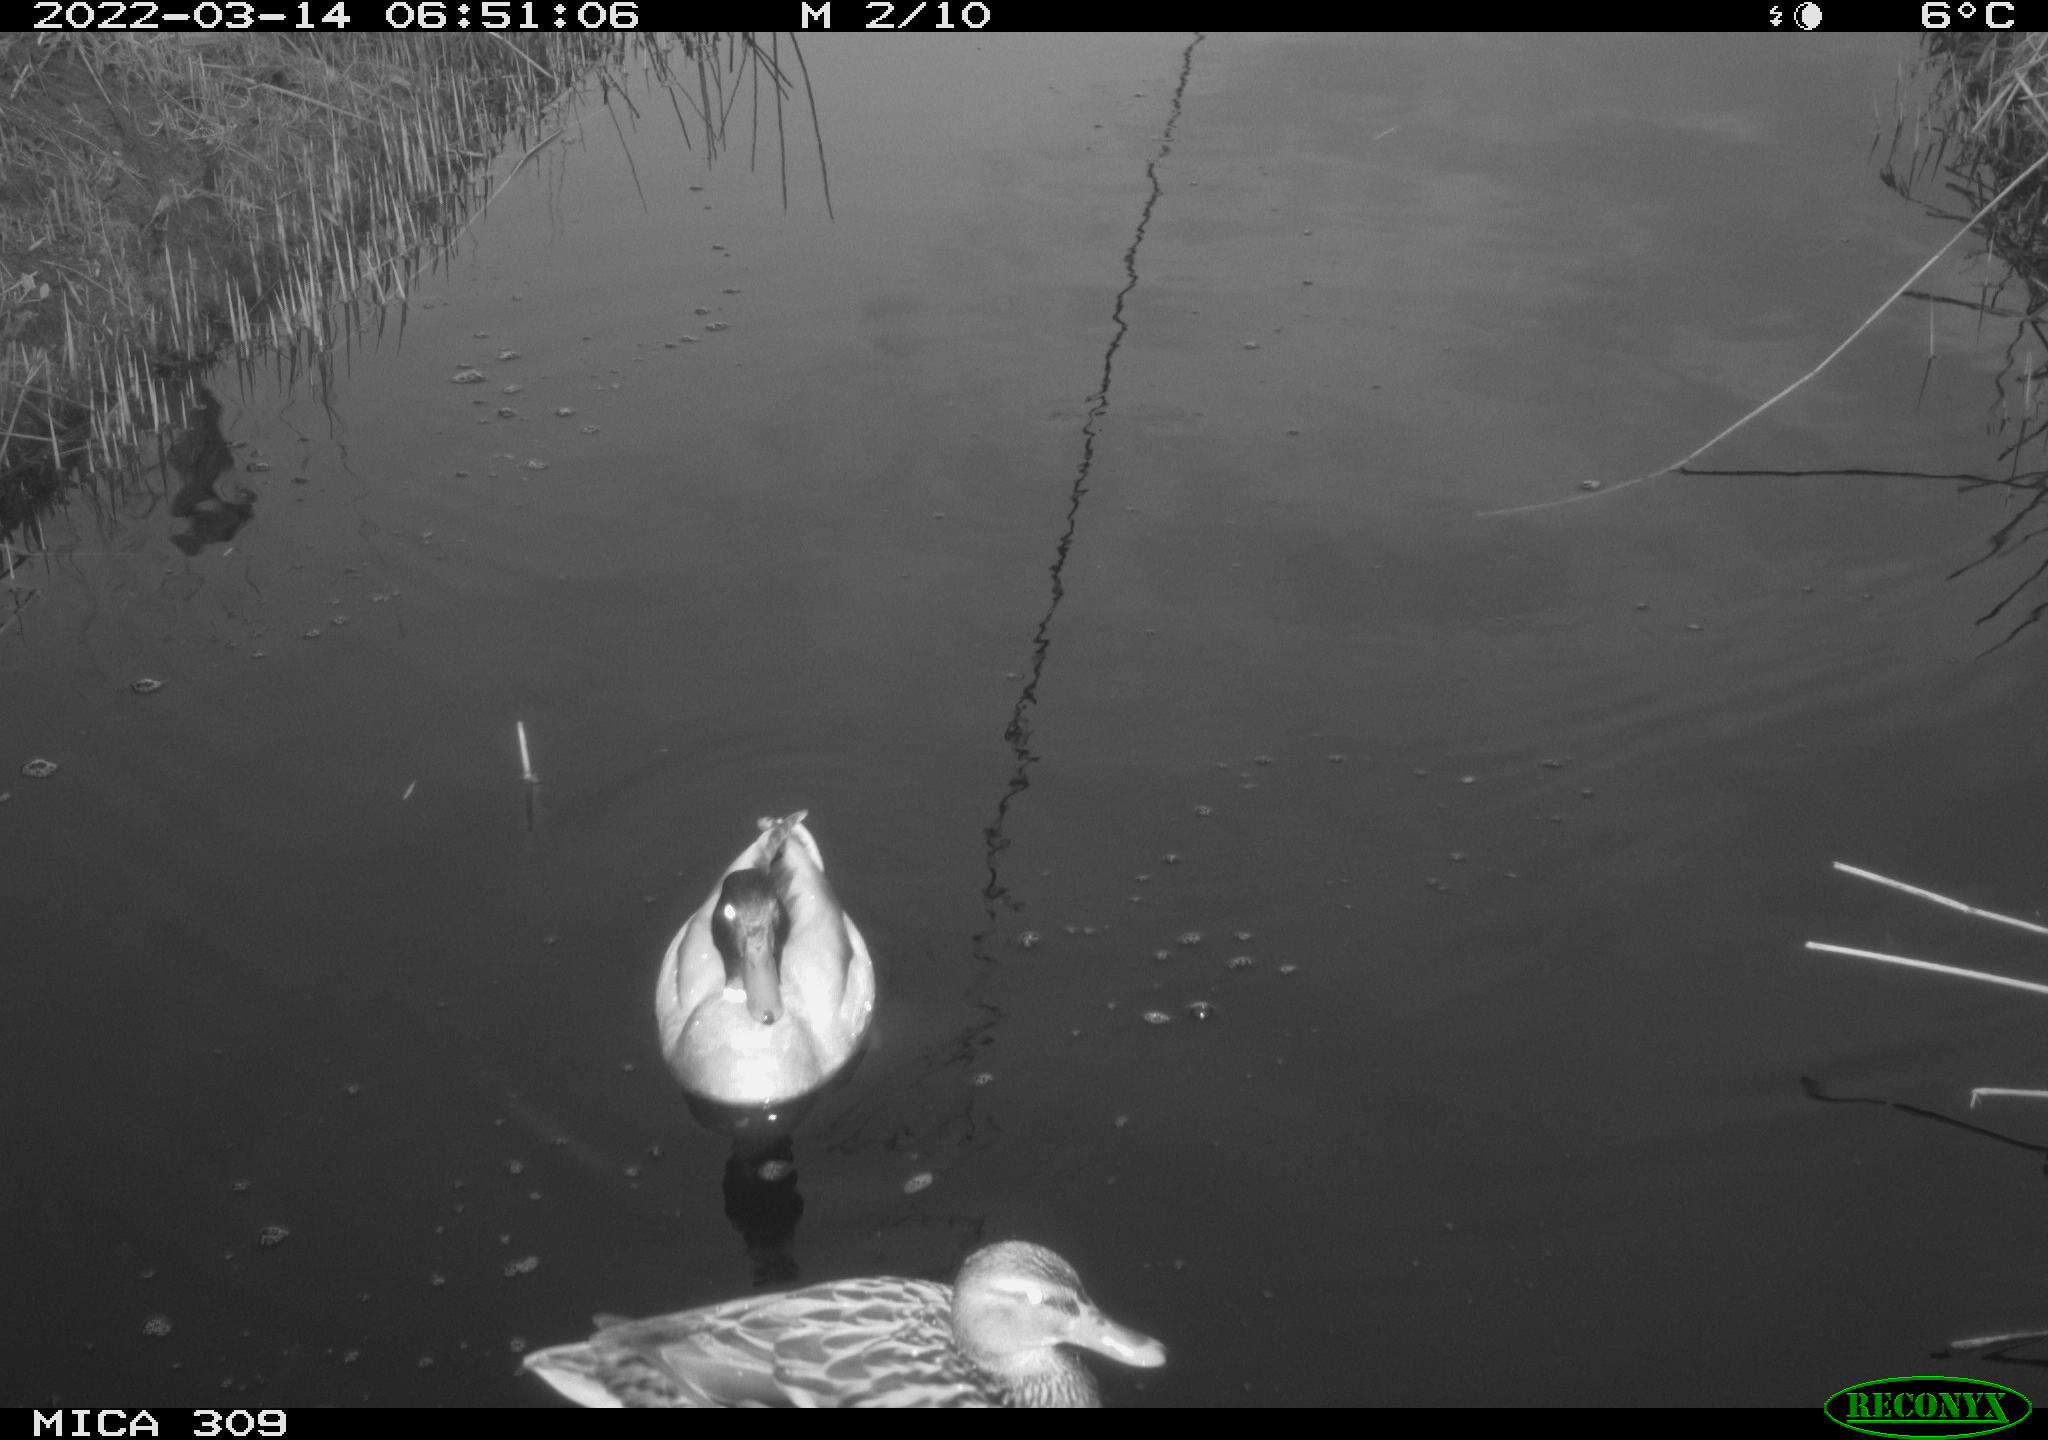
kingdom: Animalia
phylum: Chordata
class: Aves
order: Anseriformes
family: Anatidae
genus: Mareca
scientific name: Mareca strepera
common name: Gadwall
